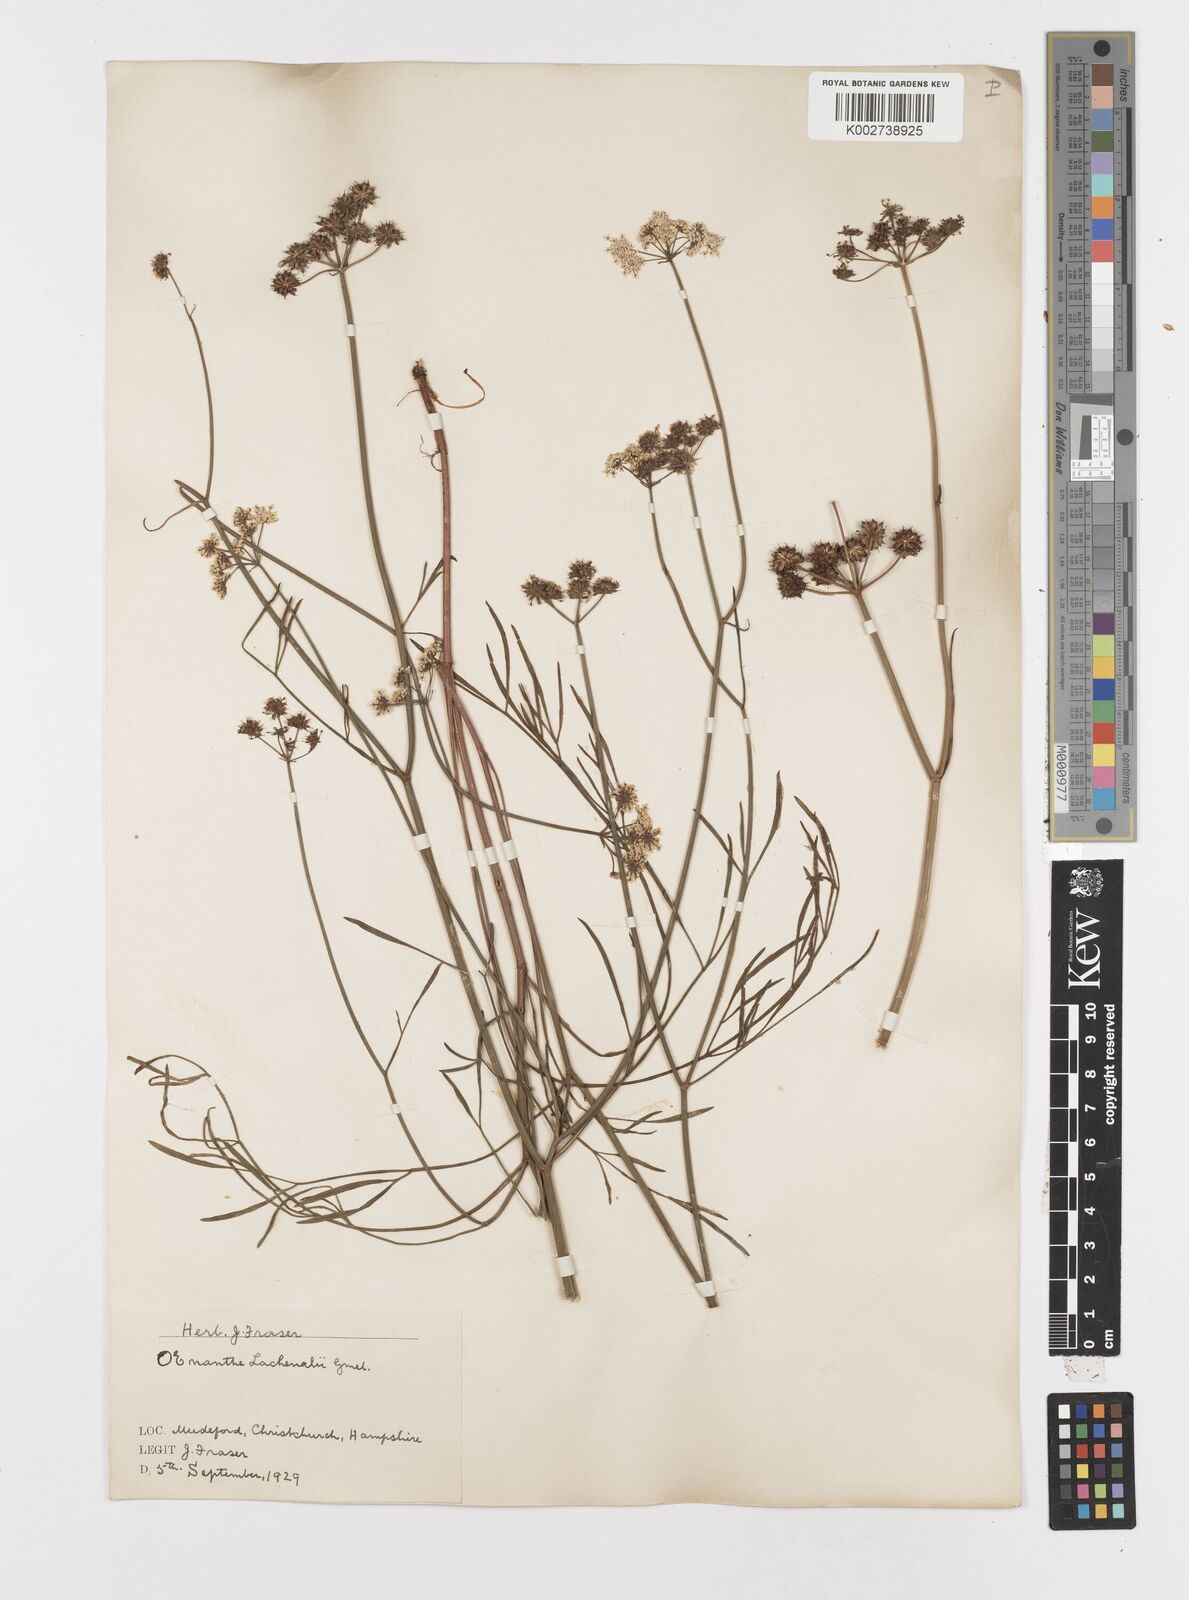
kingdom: Plantae
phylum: Tracheophyta
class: Magnoliopsida
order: Apiales
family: Apiaceae
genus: Oenanthe
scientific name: Oenanthe lachenalii
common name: Parsley water-dropwort
